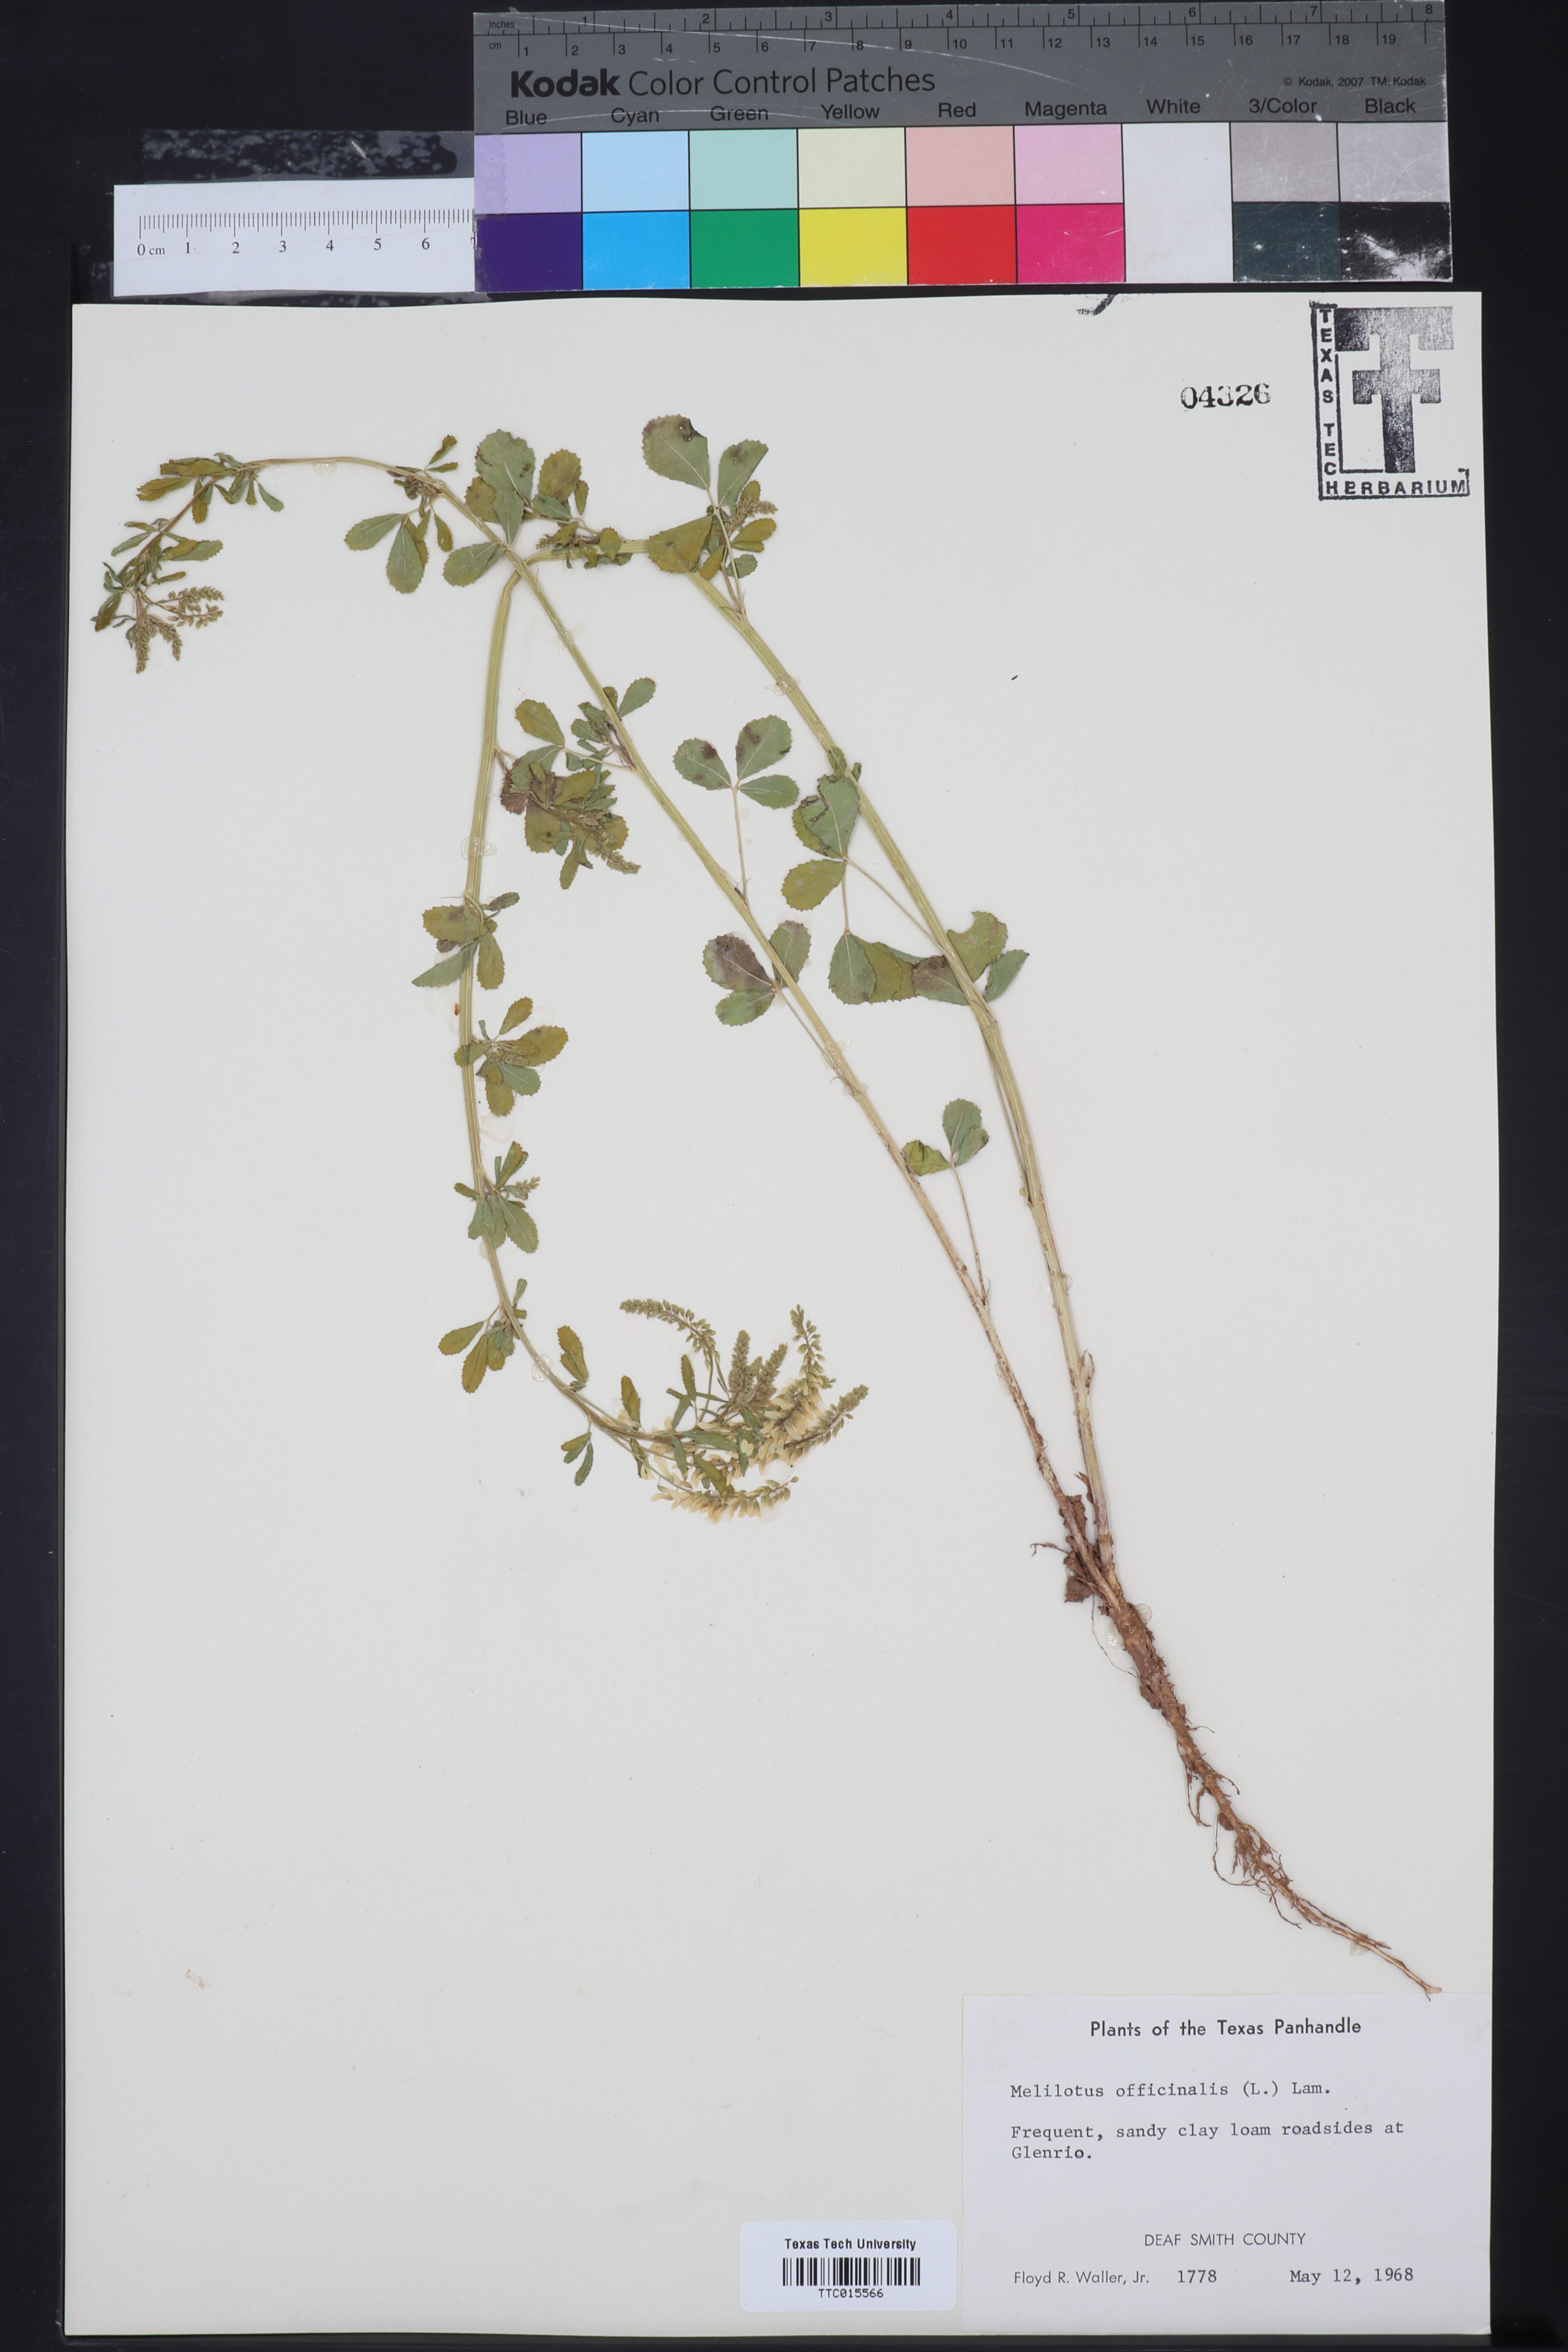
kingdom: Plantae
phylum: Tracheophyta
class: Magnoliopsida
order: Fabales
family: Fabaceae
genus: Melilotus
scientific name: Melilotus officinalis
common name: Sweetclover
